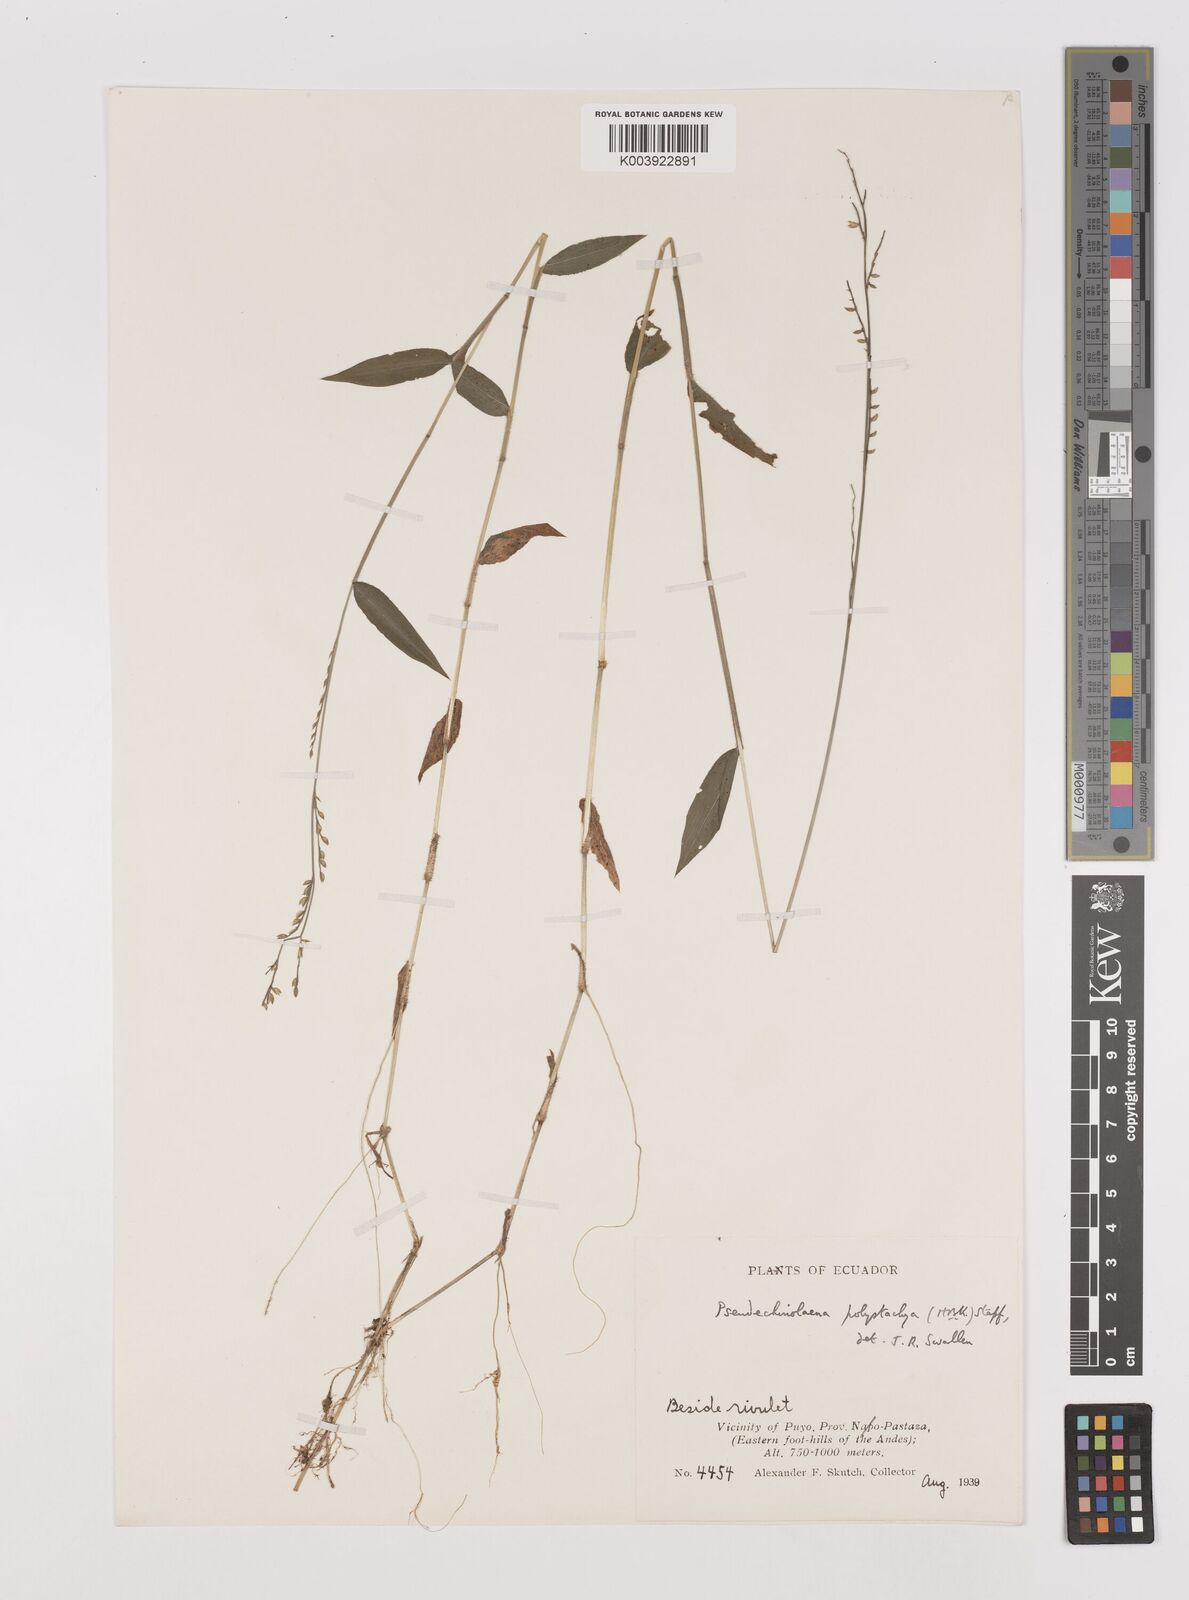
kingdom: Plantae
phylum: Tracheophyta
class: Liliopsida
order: Poales
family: Poaceae
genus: Pseudechinolaena
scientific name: Pseudechinolaena polystachya
